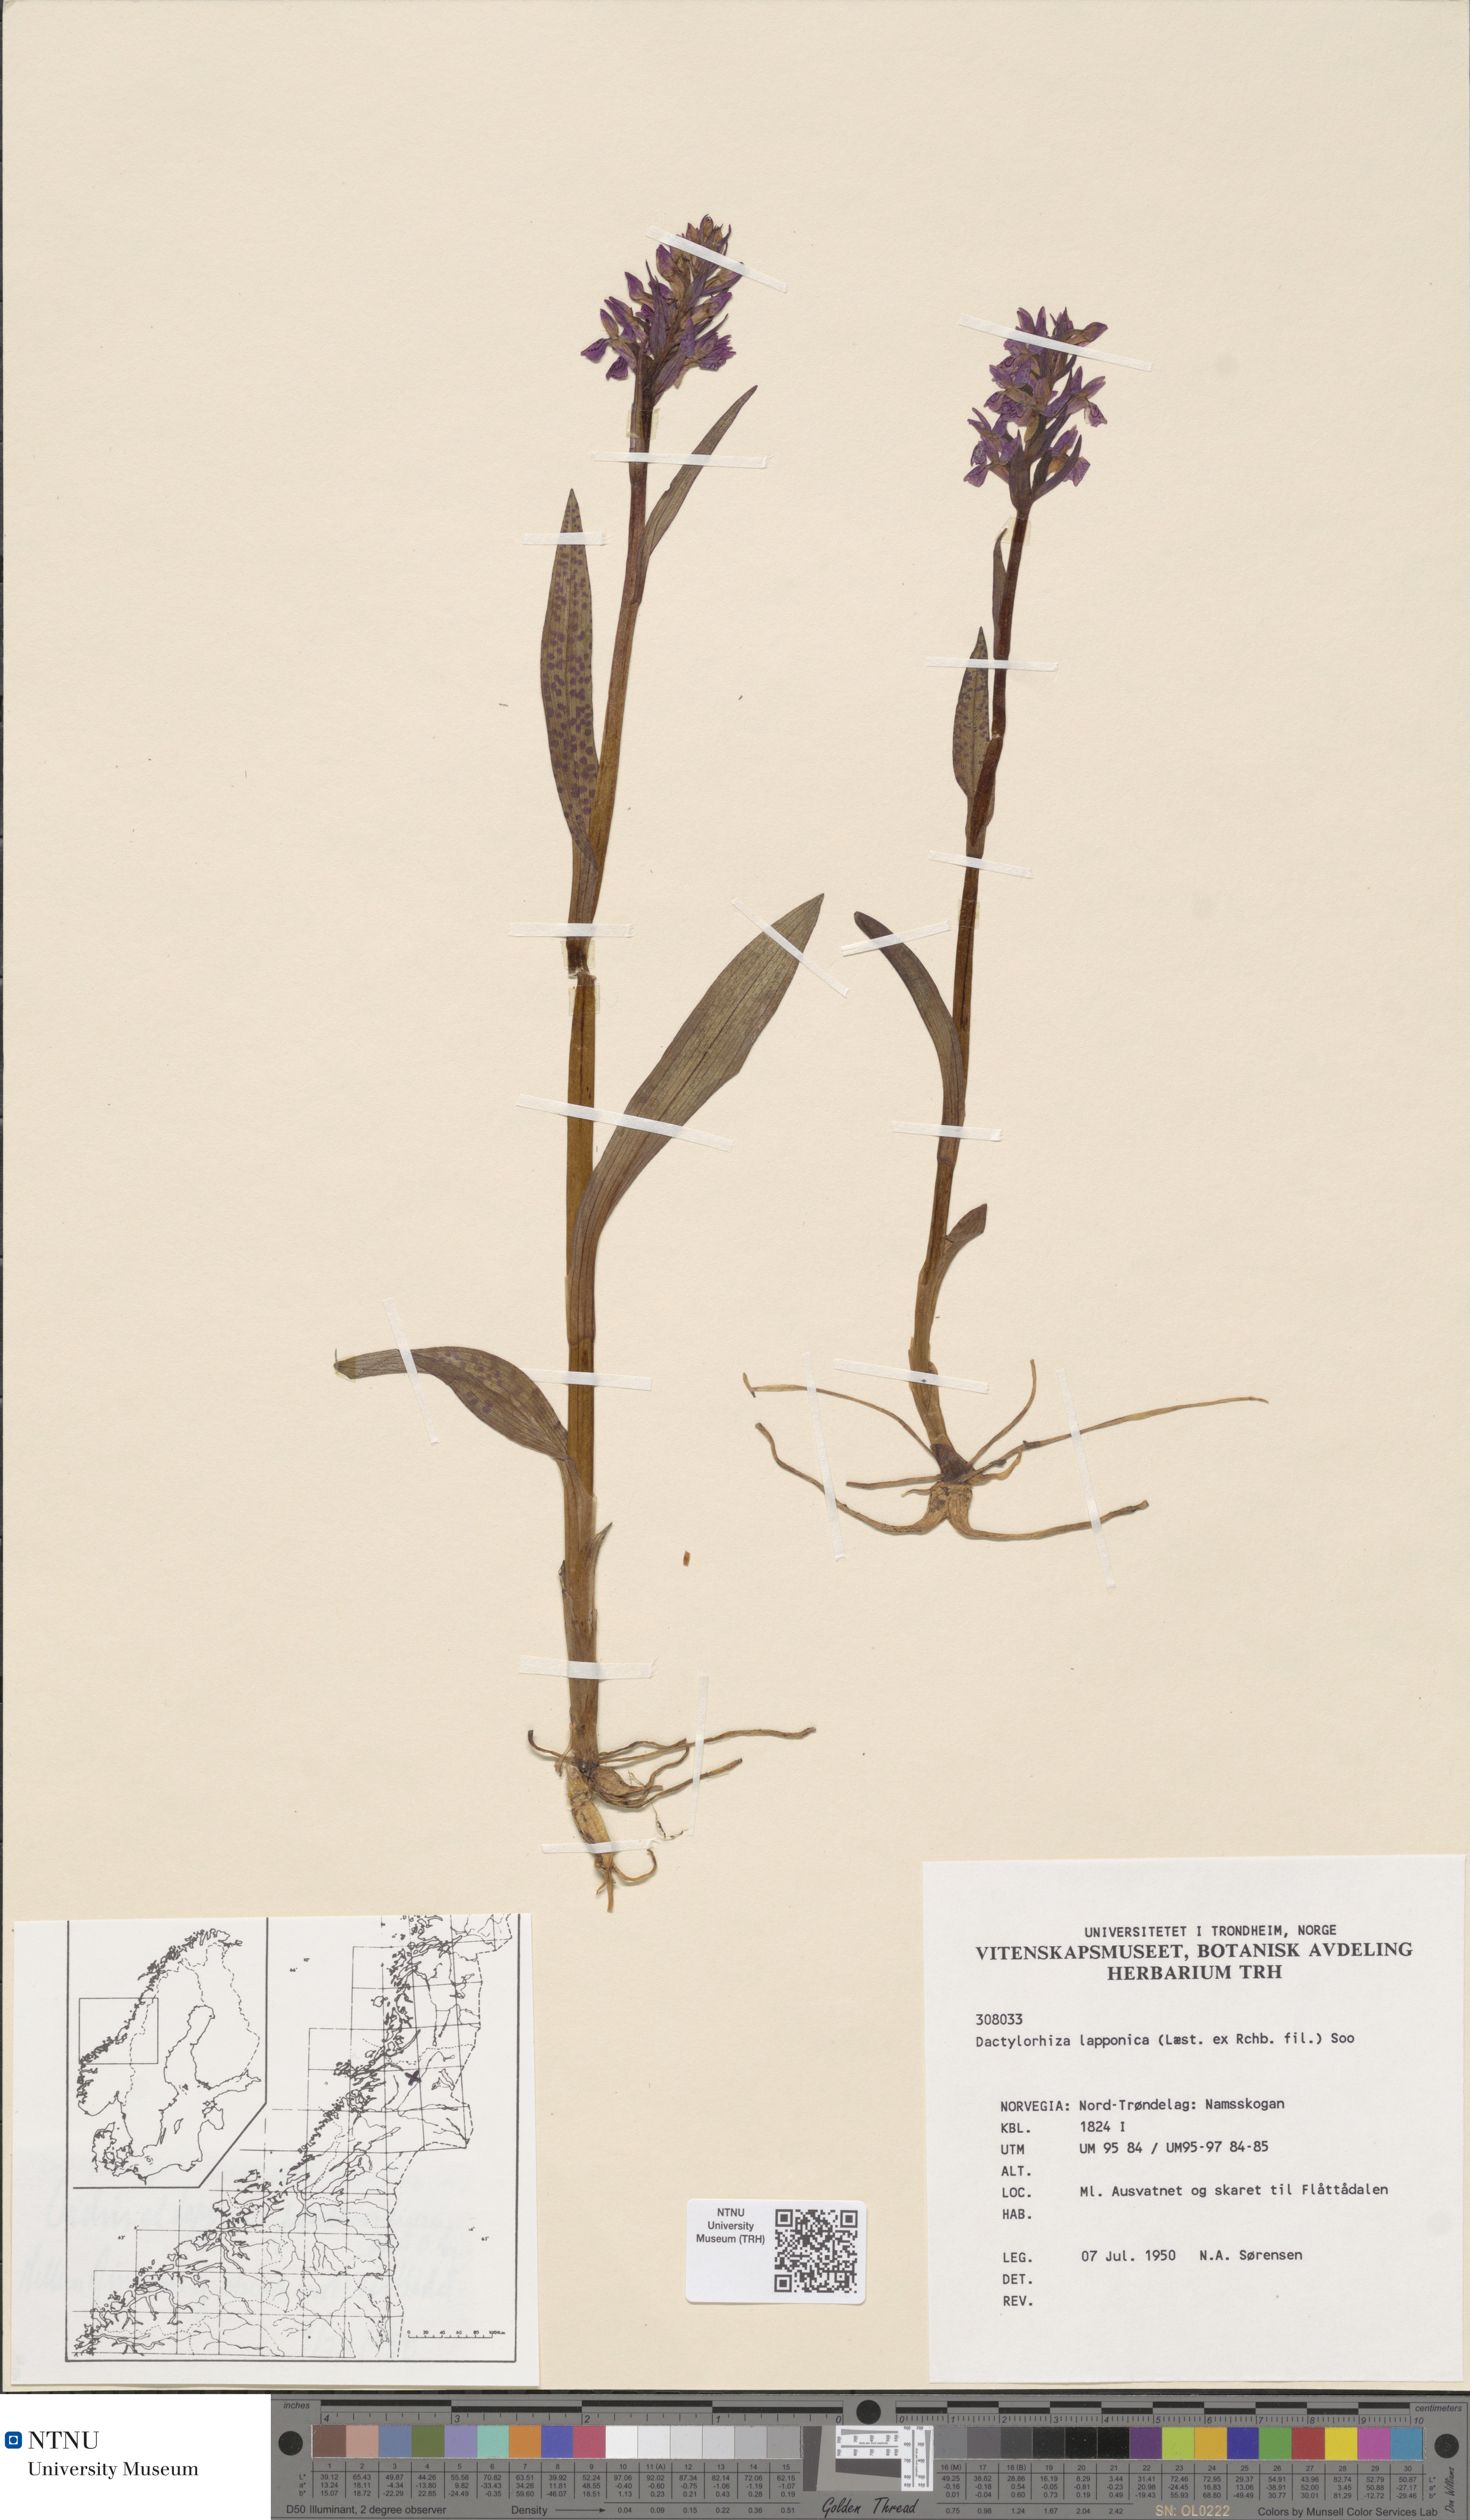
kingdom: Plantae
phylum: Tracheophyta
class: Liliopsida
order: Asparagales
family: Orchidaceae
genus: Dactylorhiza
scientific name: Dactylorhiza majalis
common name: Marsh orchid
